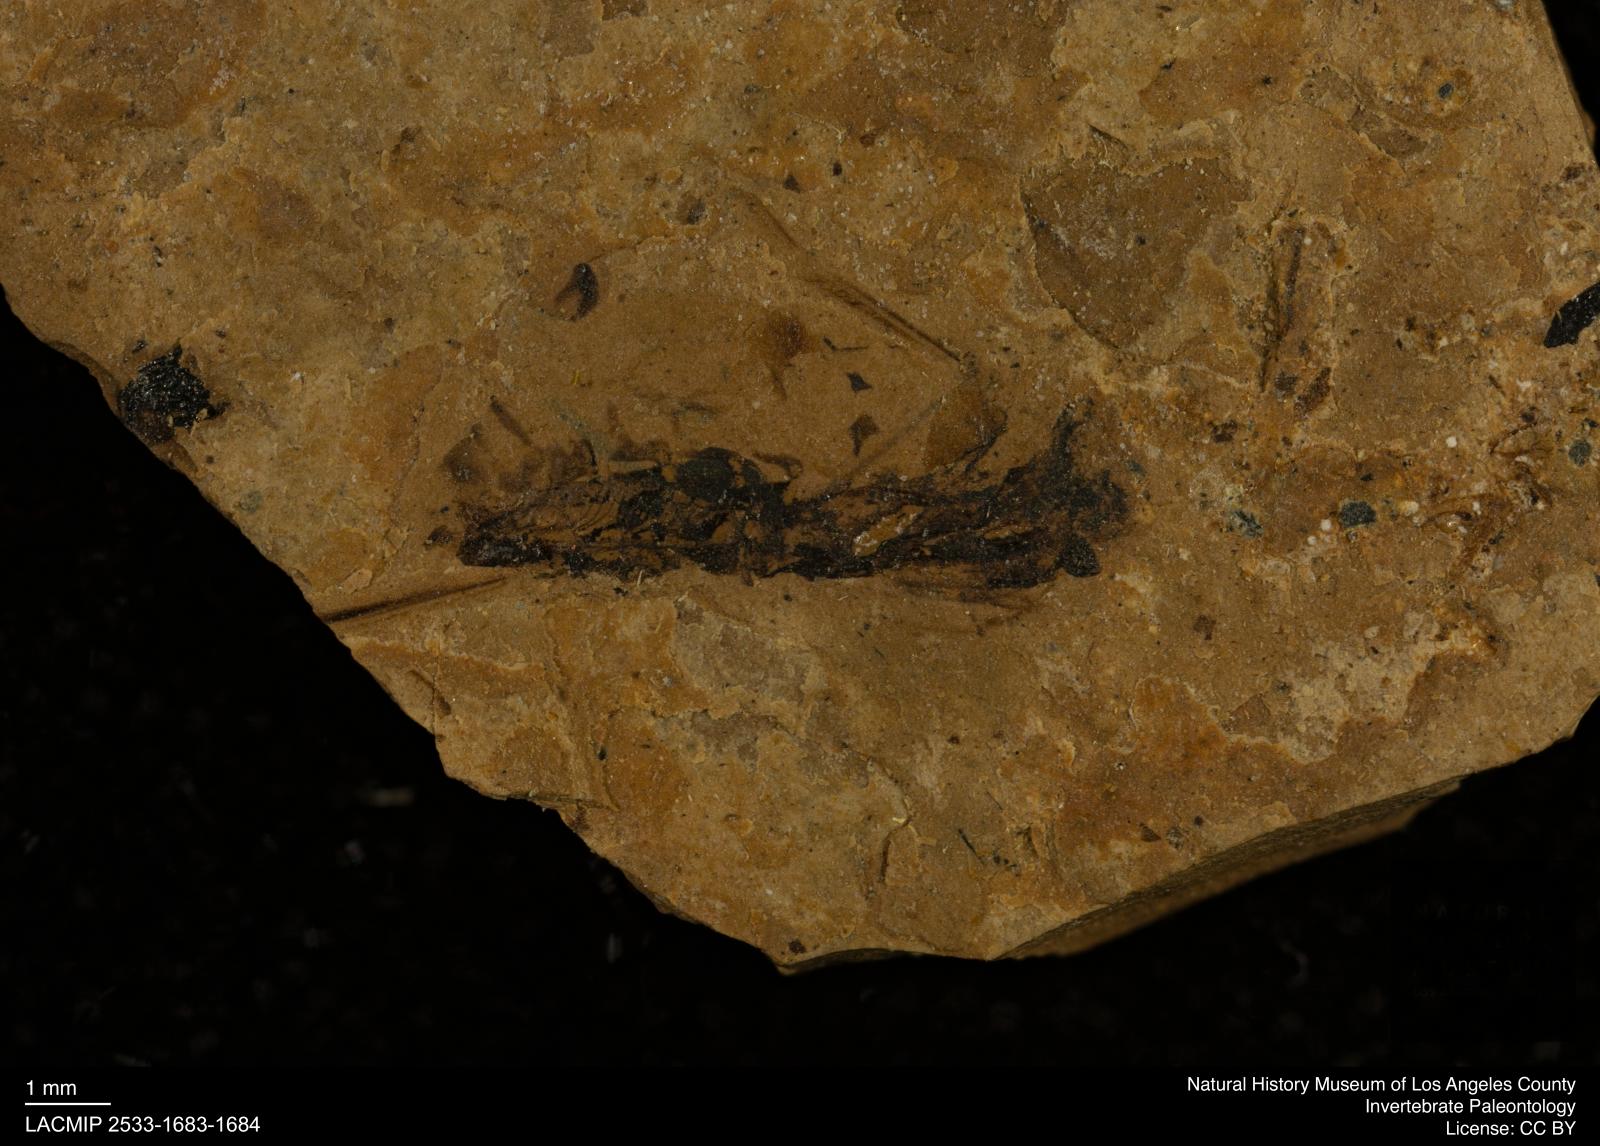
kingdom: Animalia
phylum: Arthropoda
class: Insecta
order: Hemiptera
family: Notonectidae
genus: Notonecta
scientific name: Notonecta
